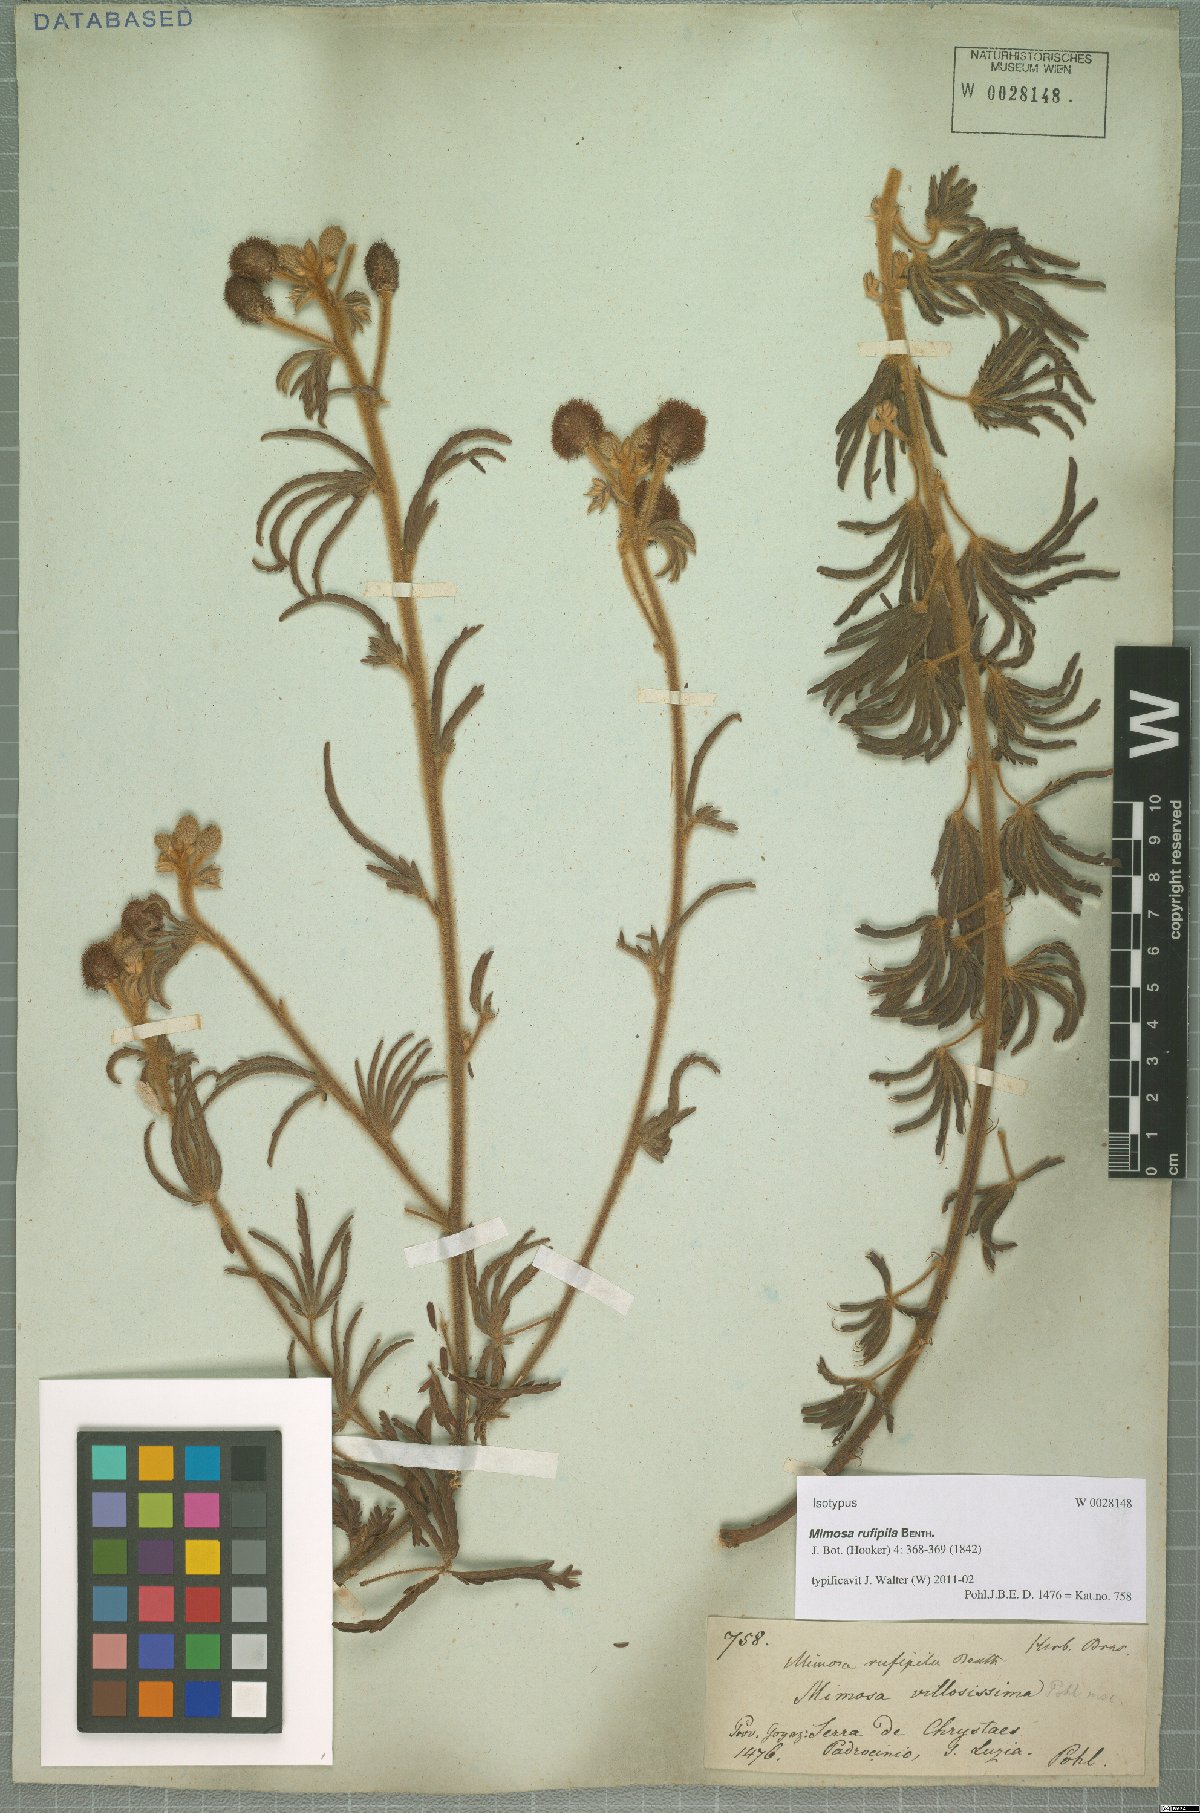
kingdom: Plantae
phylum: Tracheophyta
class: Magnoliopsida
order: Fabales
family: Fabaceae
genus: Mimosa
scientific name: Mimosa rufipila
